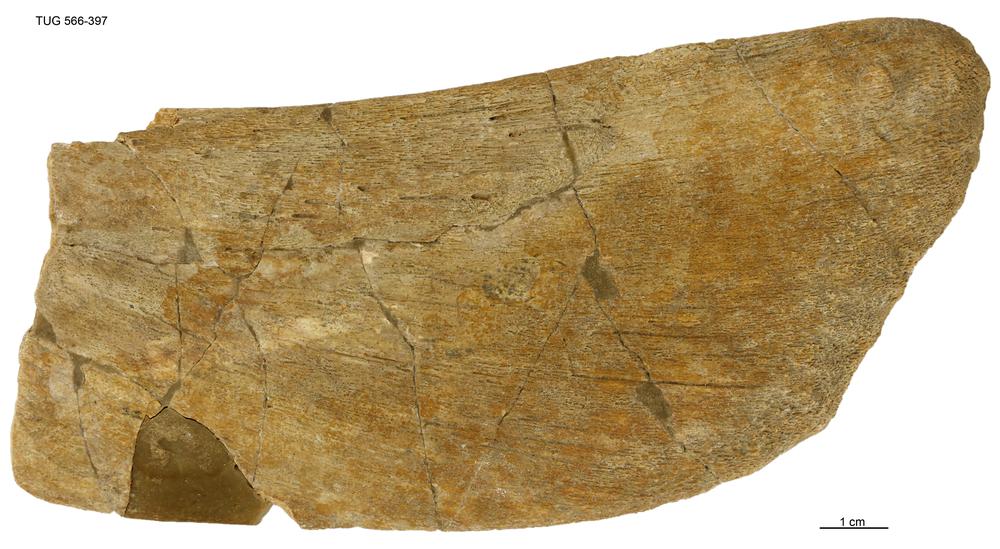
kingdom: Animalia
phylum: Chordata
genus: Homosteus
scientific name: Homosteus latus
